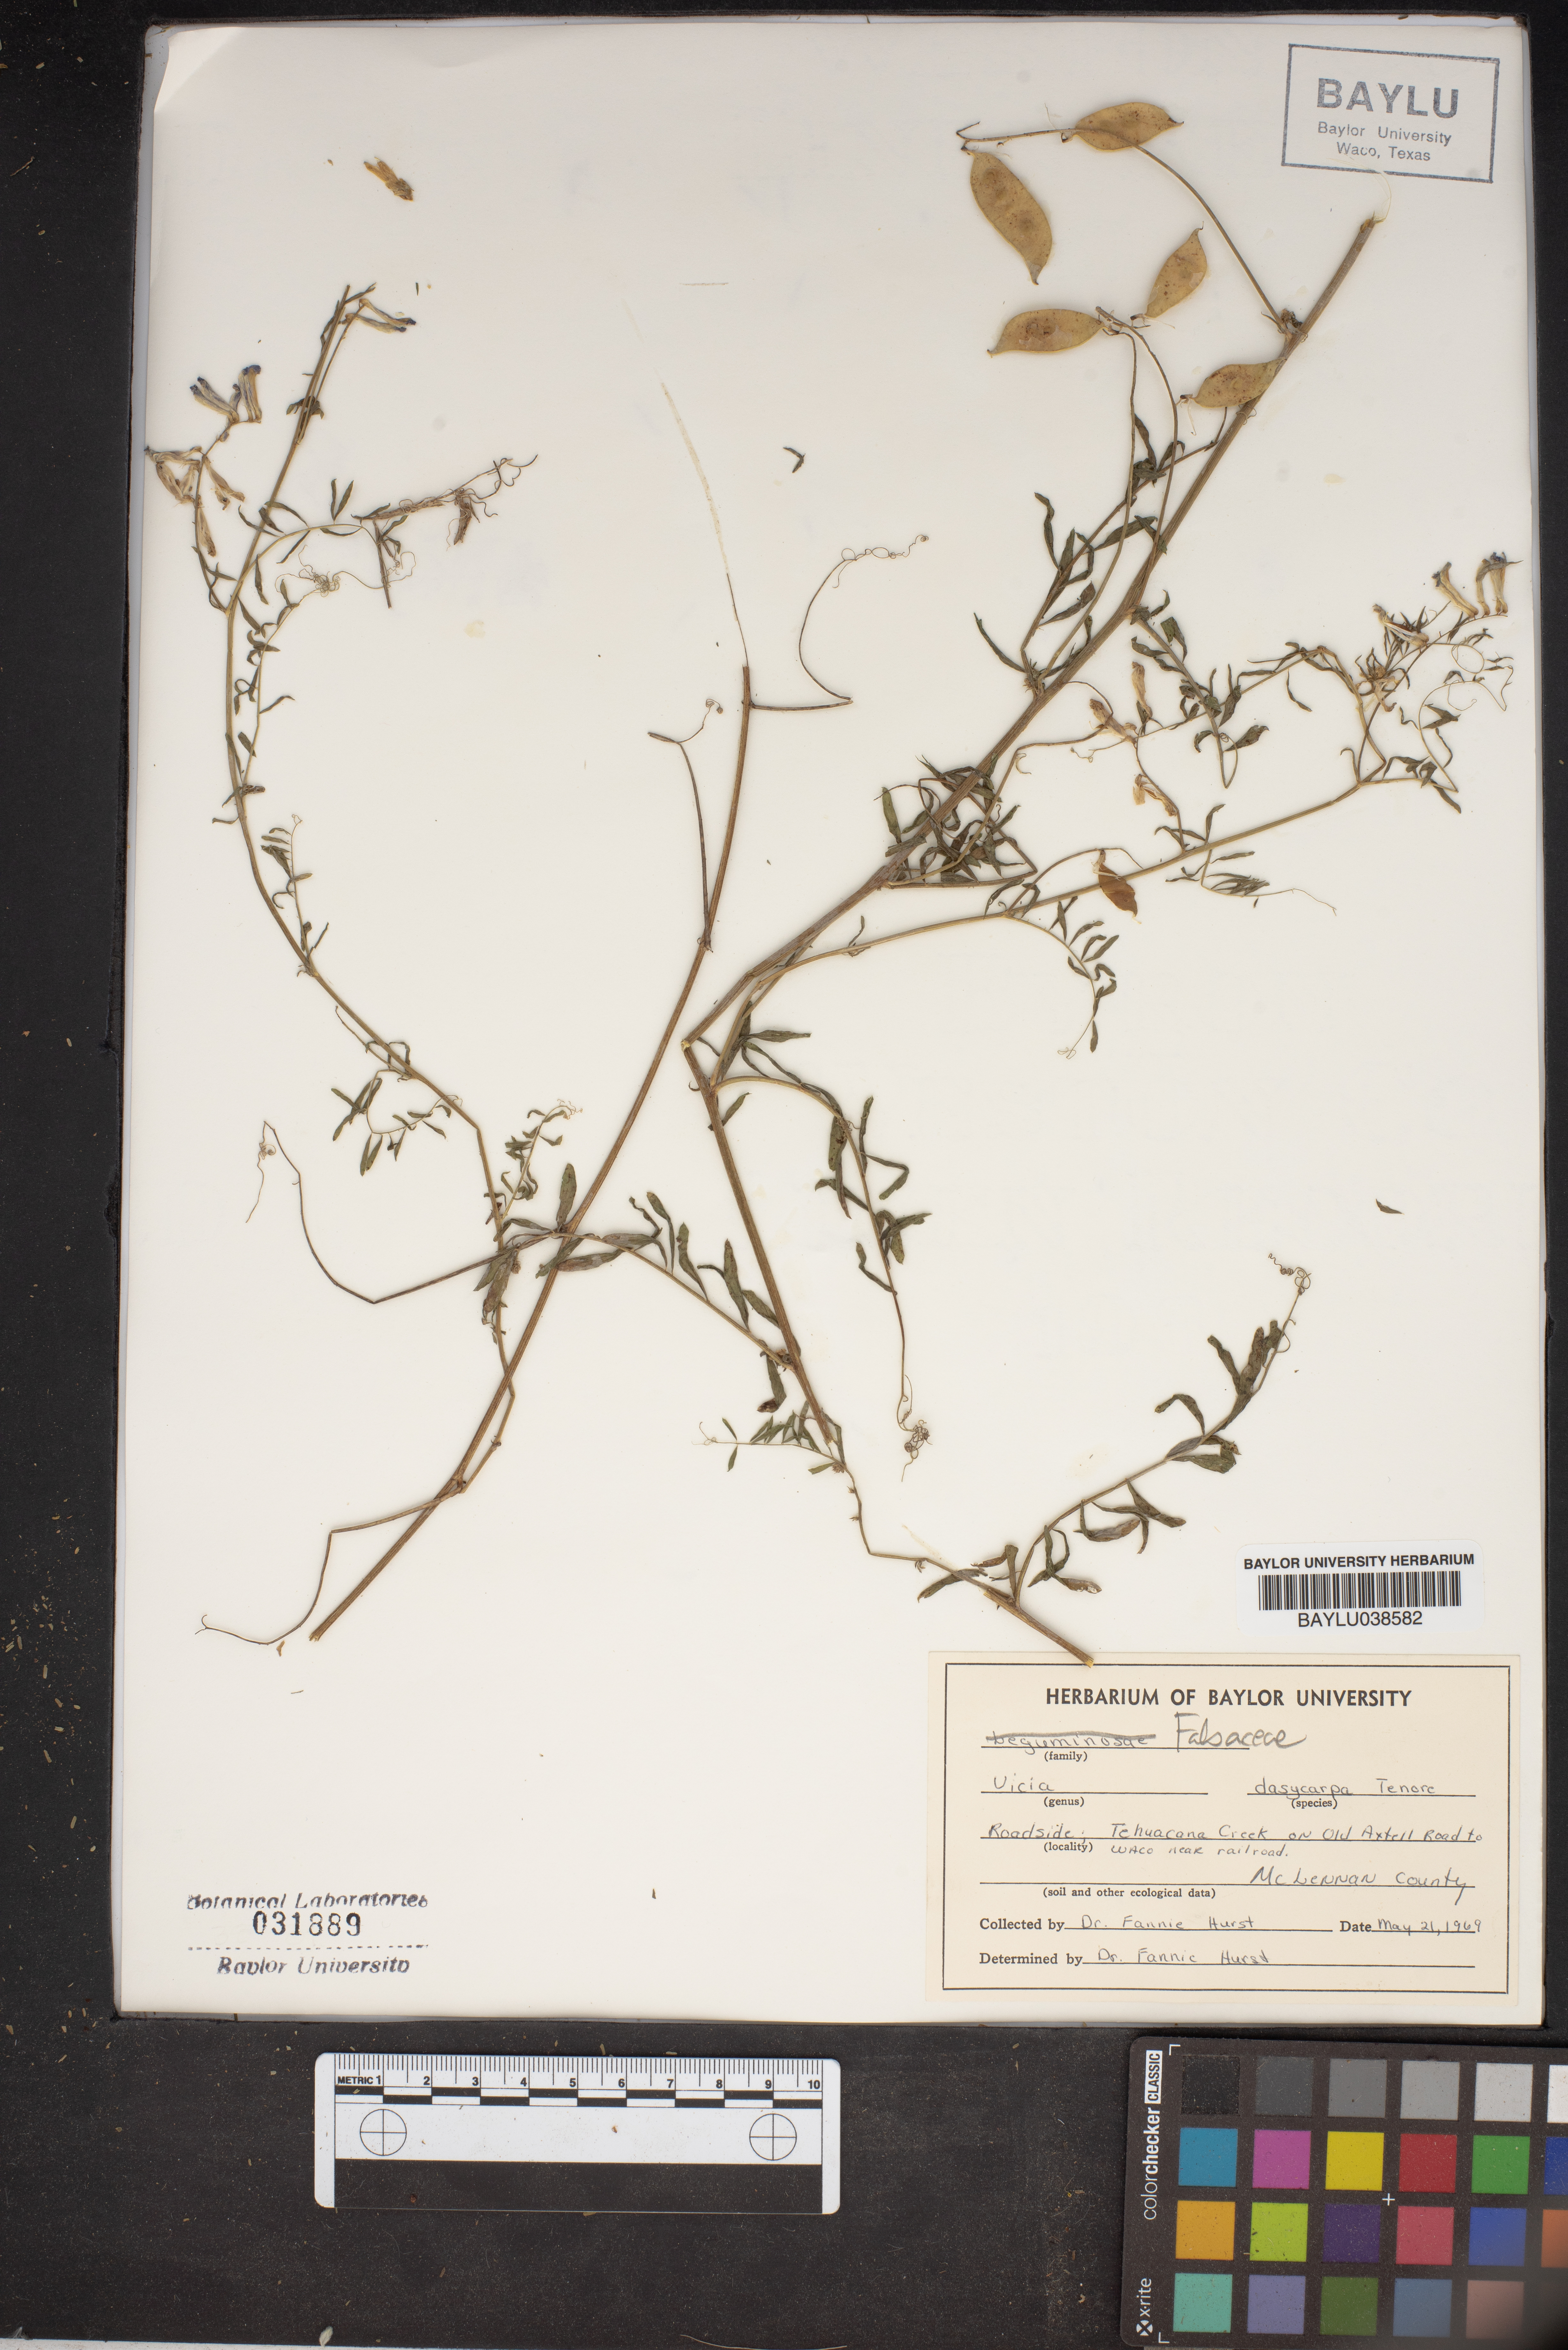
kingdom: Plantae
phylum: Tracheophyta
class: Magnoliopsida
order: Fabales
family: Fabaceae
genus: Vicia
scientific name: Vicia villosa
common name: Fodder vetch
